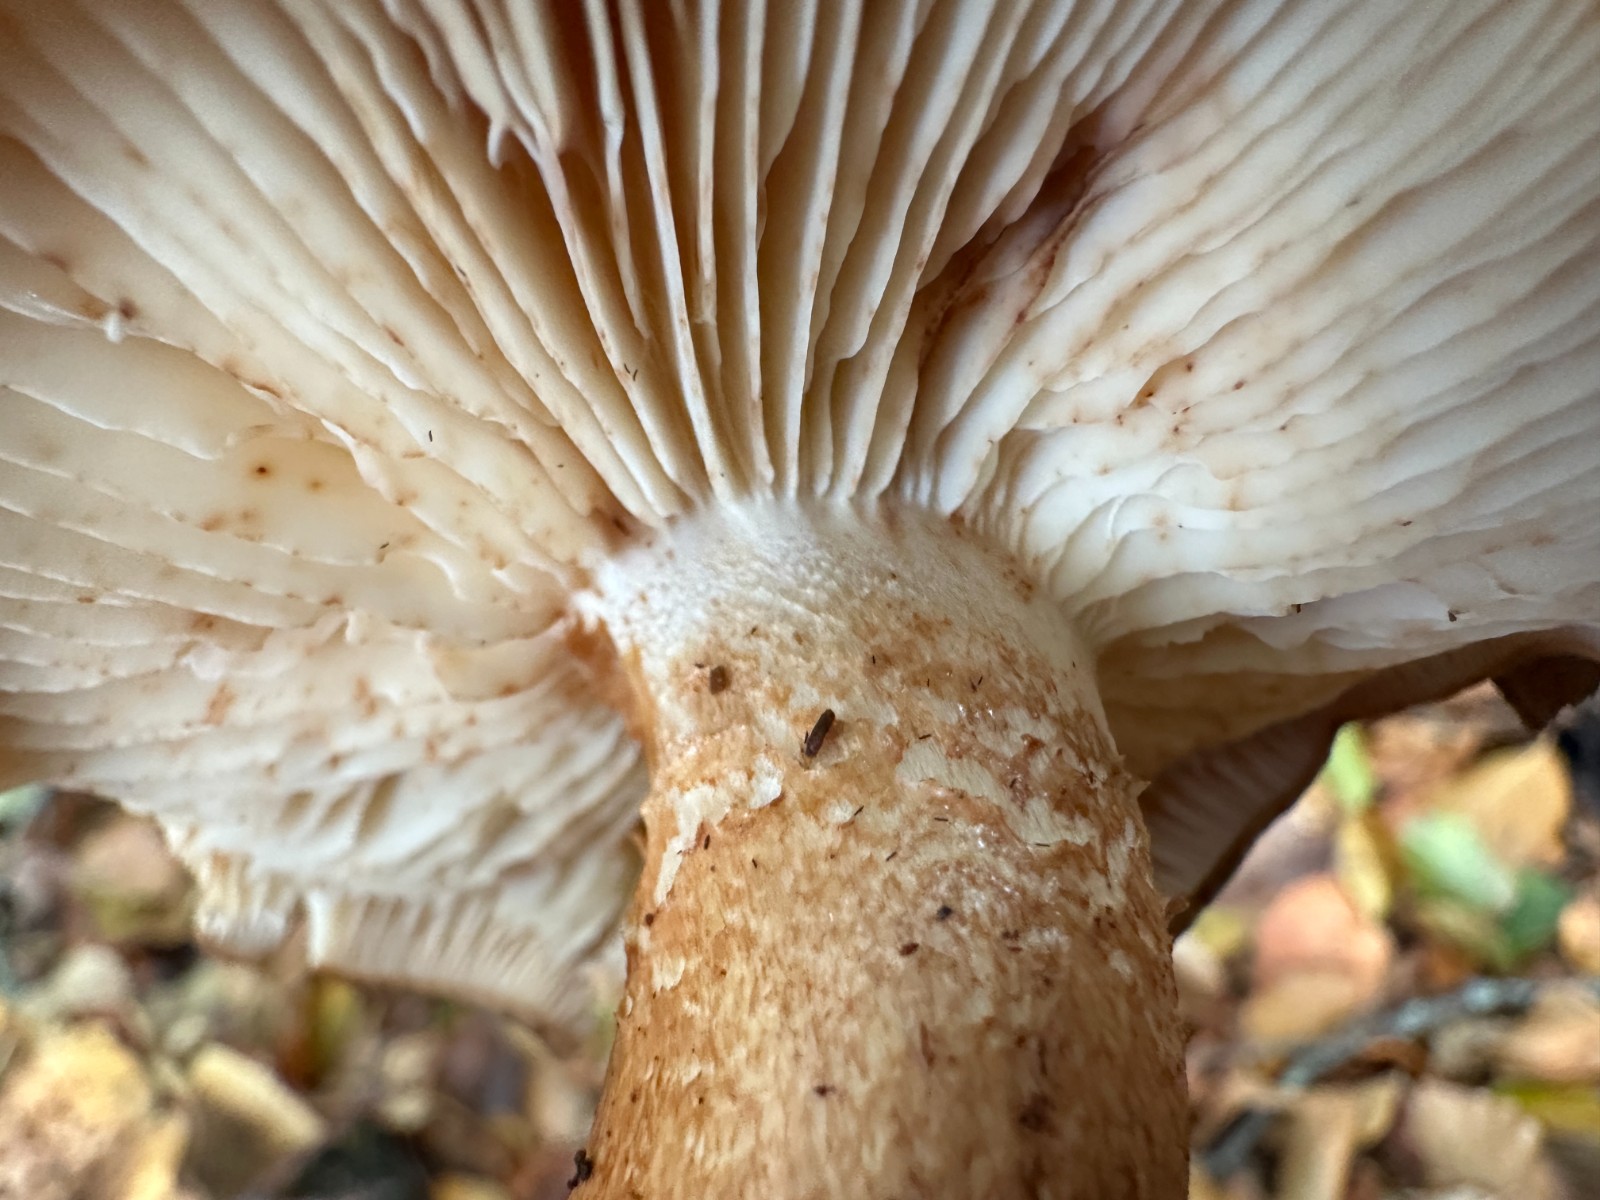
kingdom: Fungi
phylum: Basidiomycota
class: Agaricomycetes
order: Agaricales
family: Tricholomataceae
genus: Tricholoma
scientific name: Tricholoma ustaloides
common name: knippe-ridderhat
